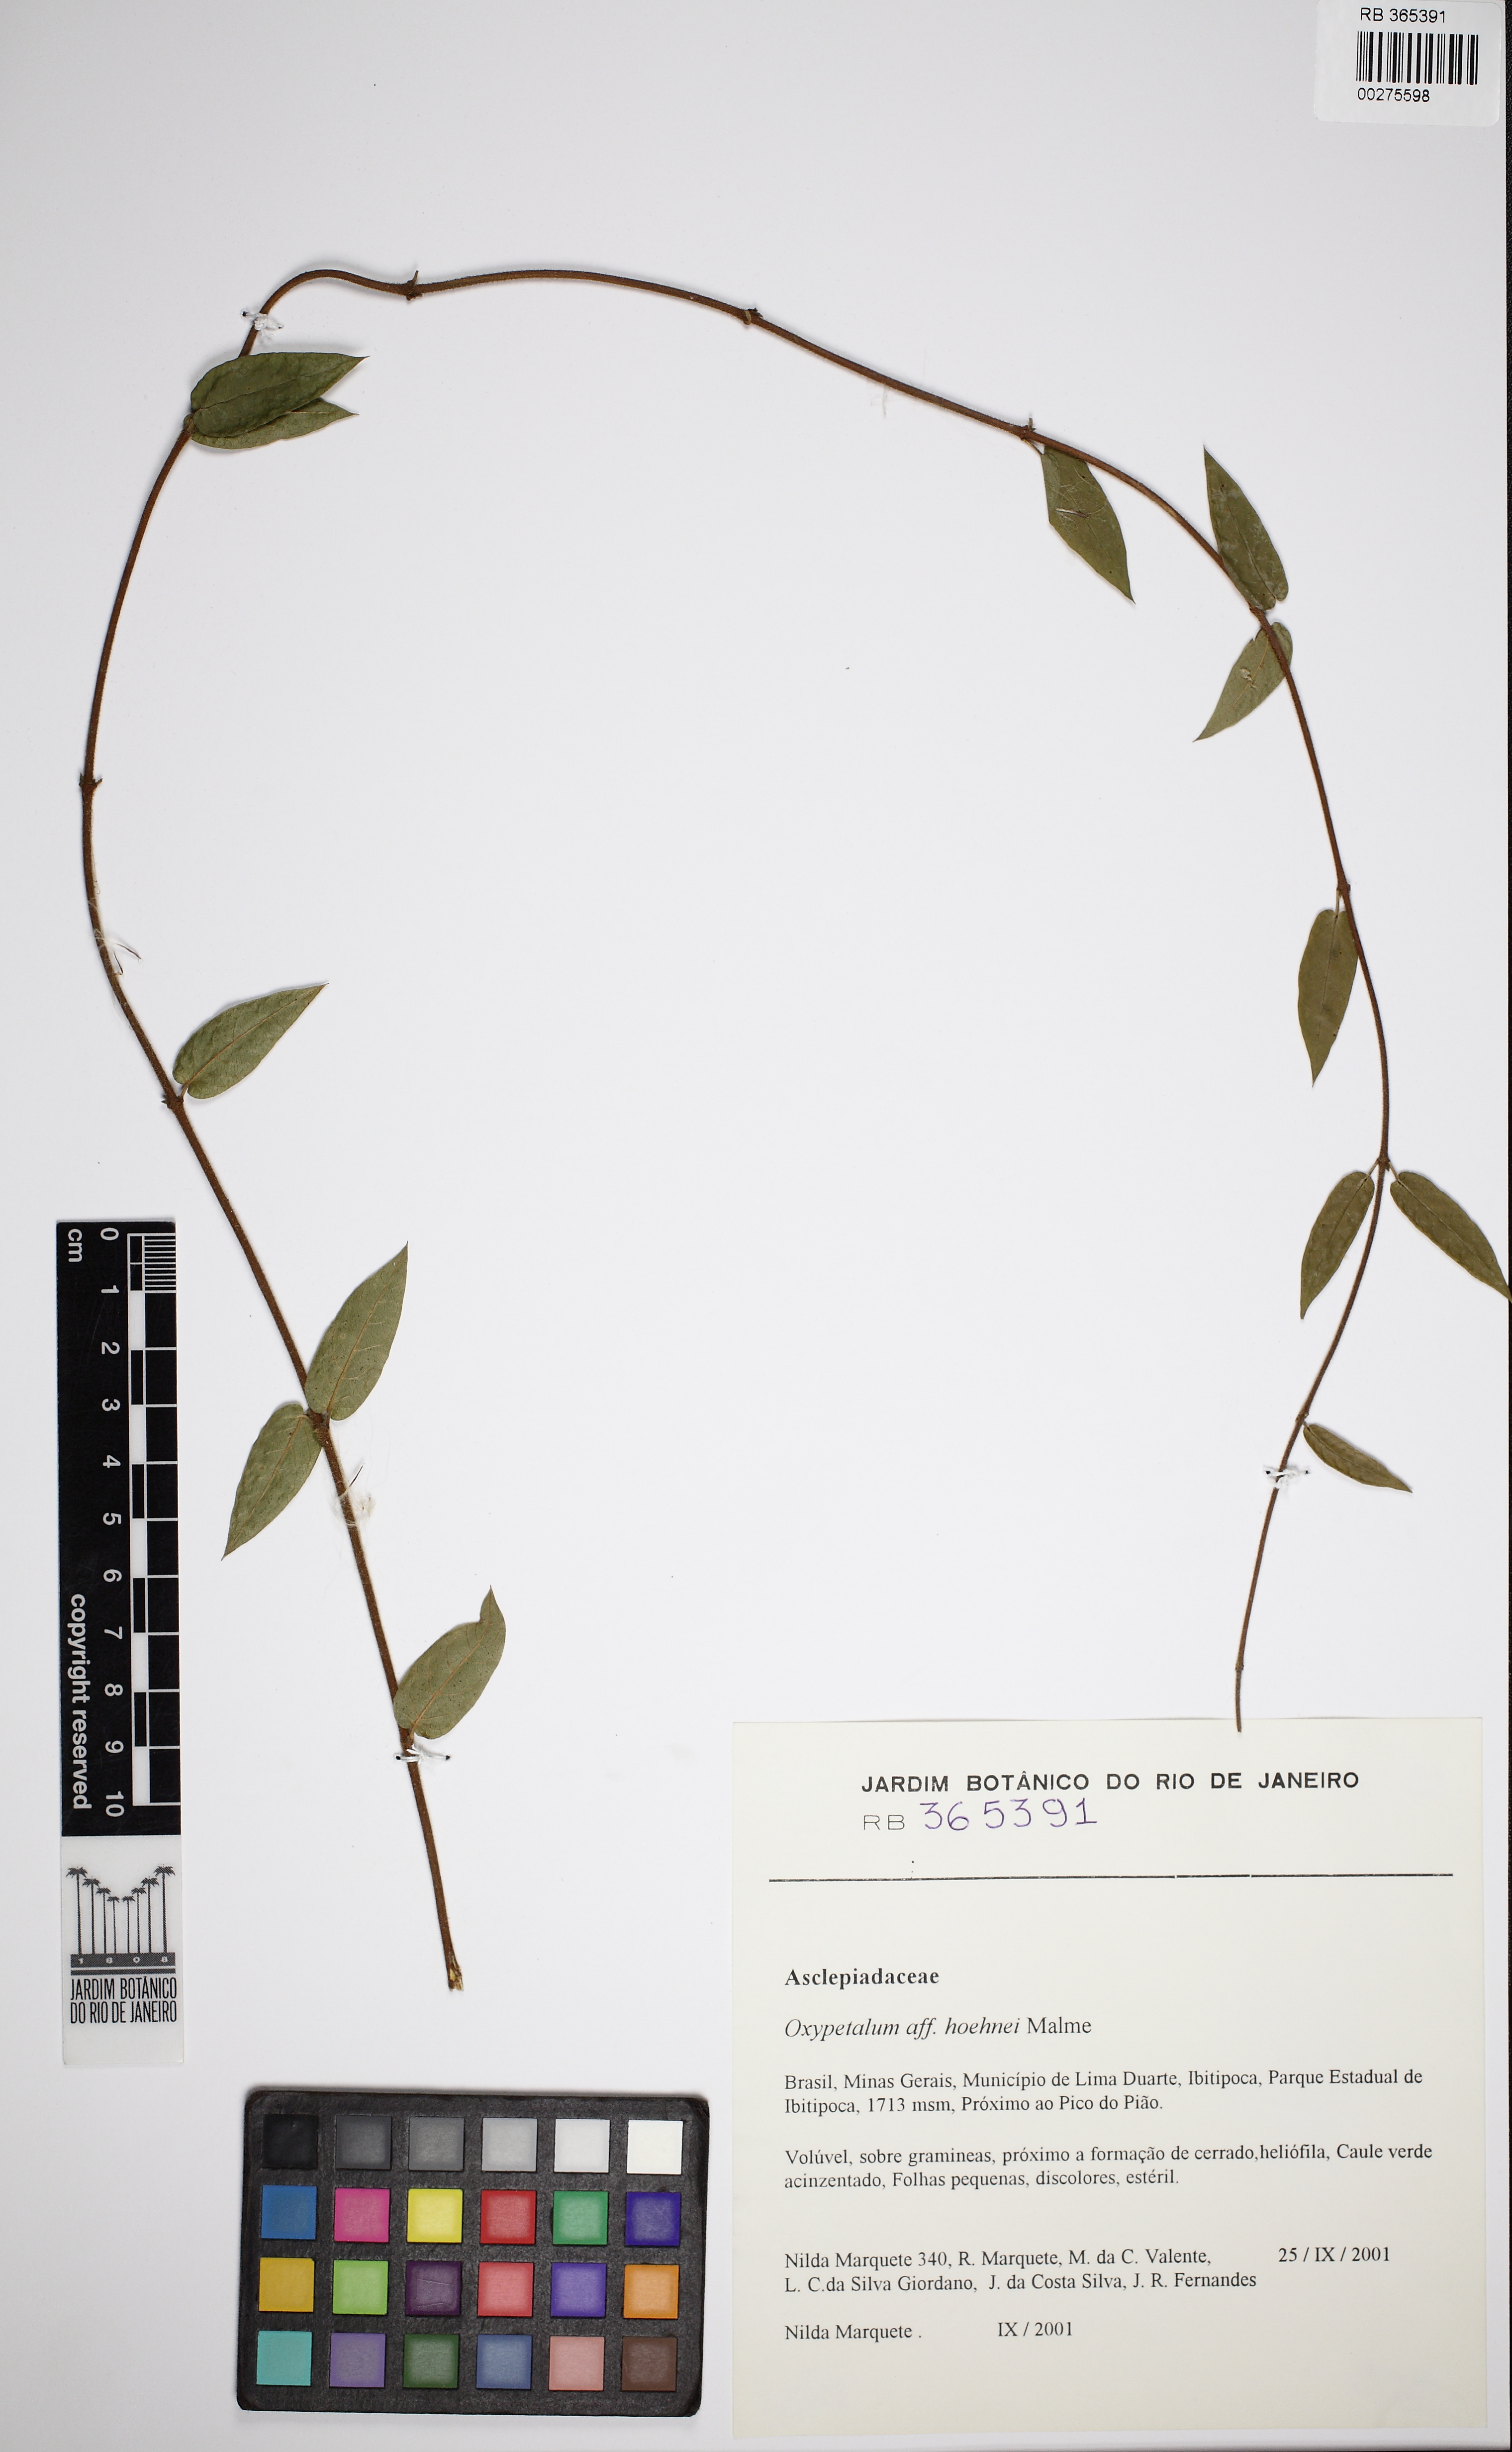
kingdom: Plantae
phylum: Tracheophyta
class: Magnoliopsida
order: Gentianales
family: Apocynaceae
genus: Oxypetalum
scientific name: Oxypetalum hoehnei
